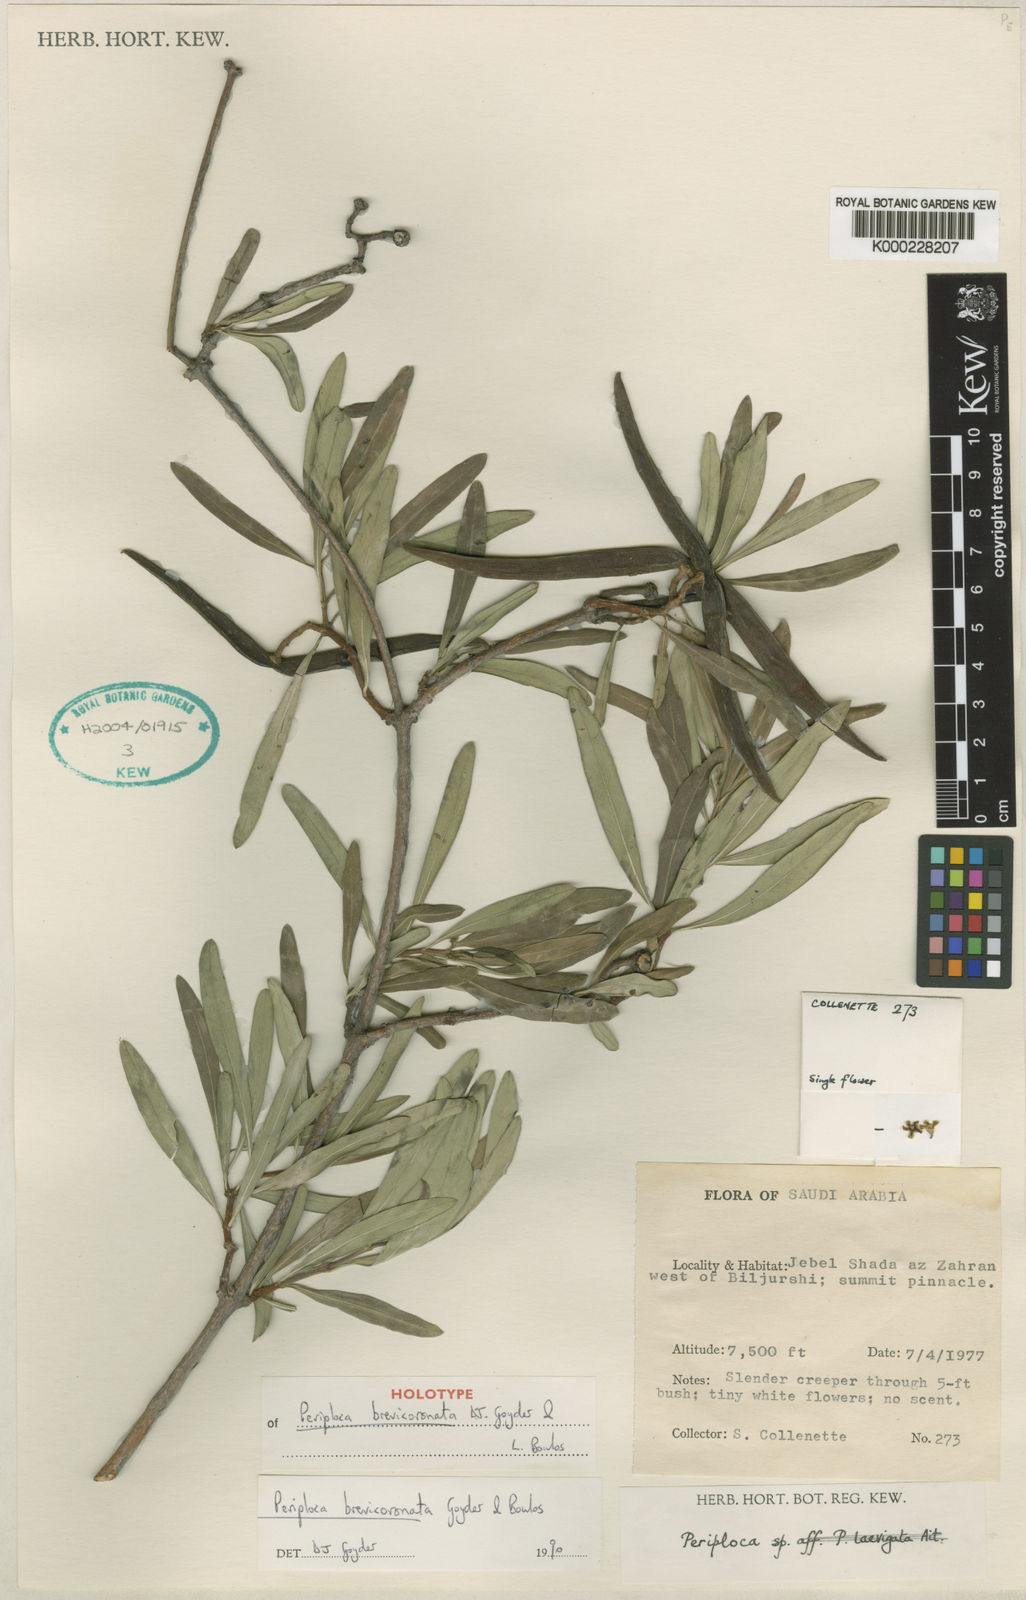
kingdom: Plantae
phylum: Tracheophyta
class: Magnoliopsida
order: Gentianales
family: Apocynaceae
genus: Periploca
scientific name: Periploca somaliensis
